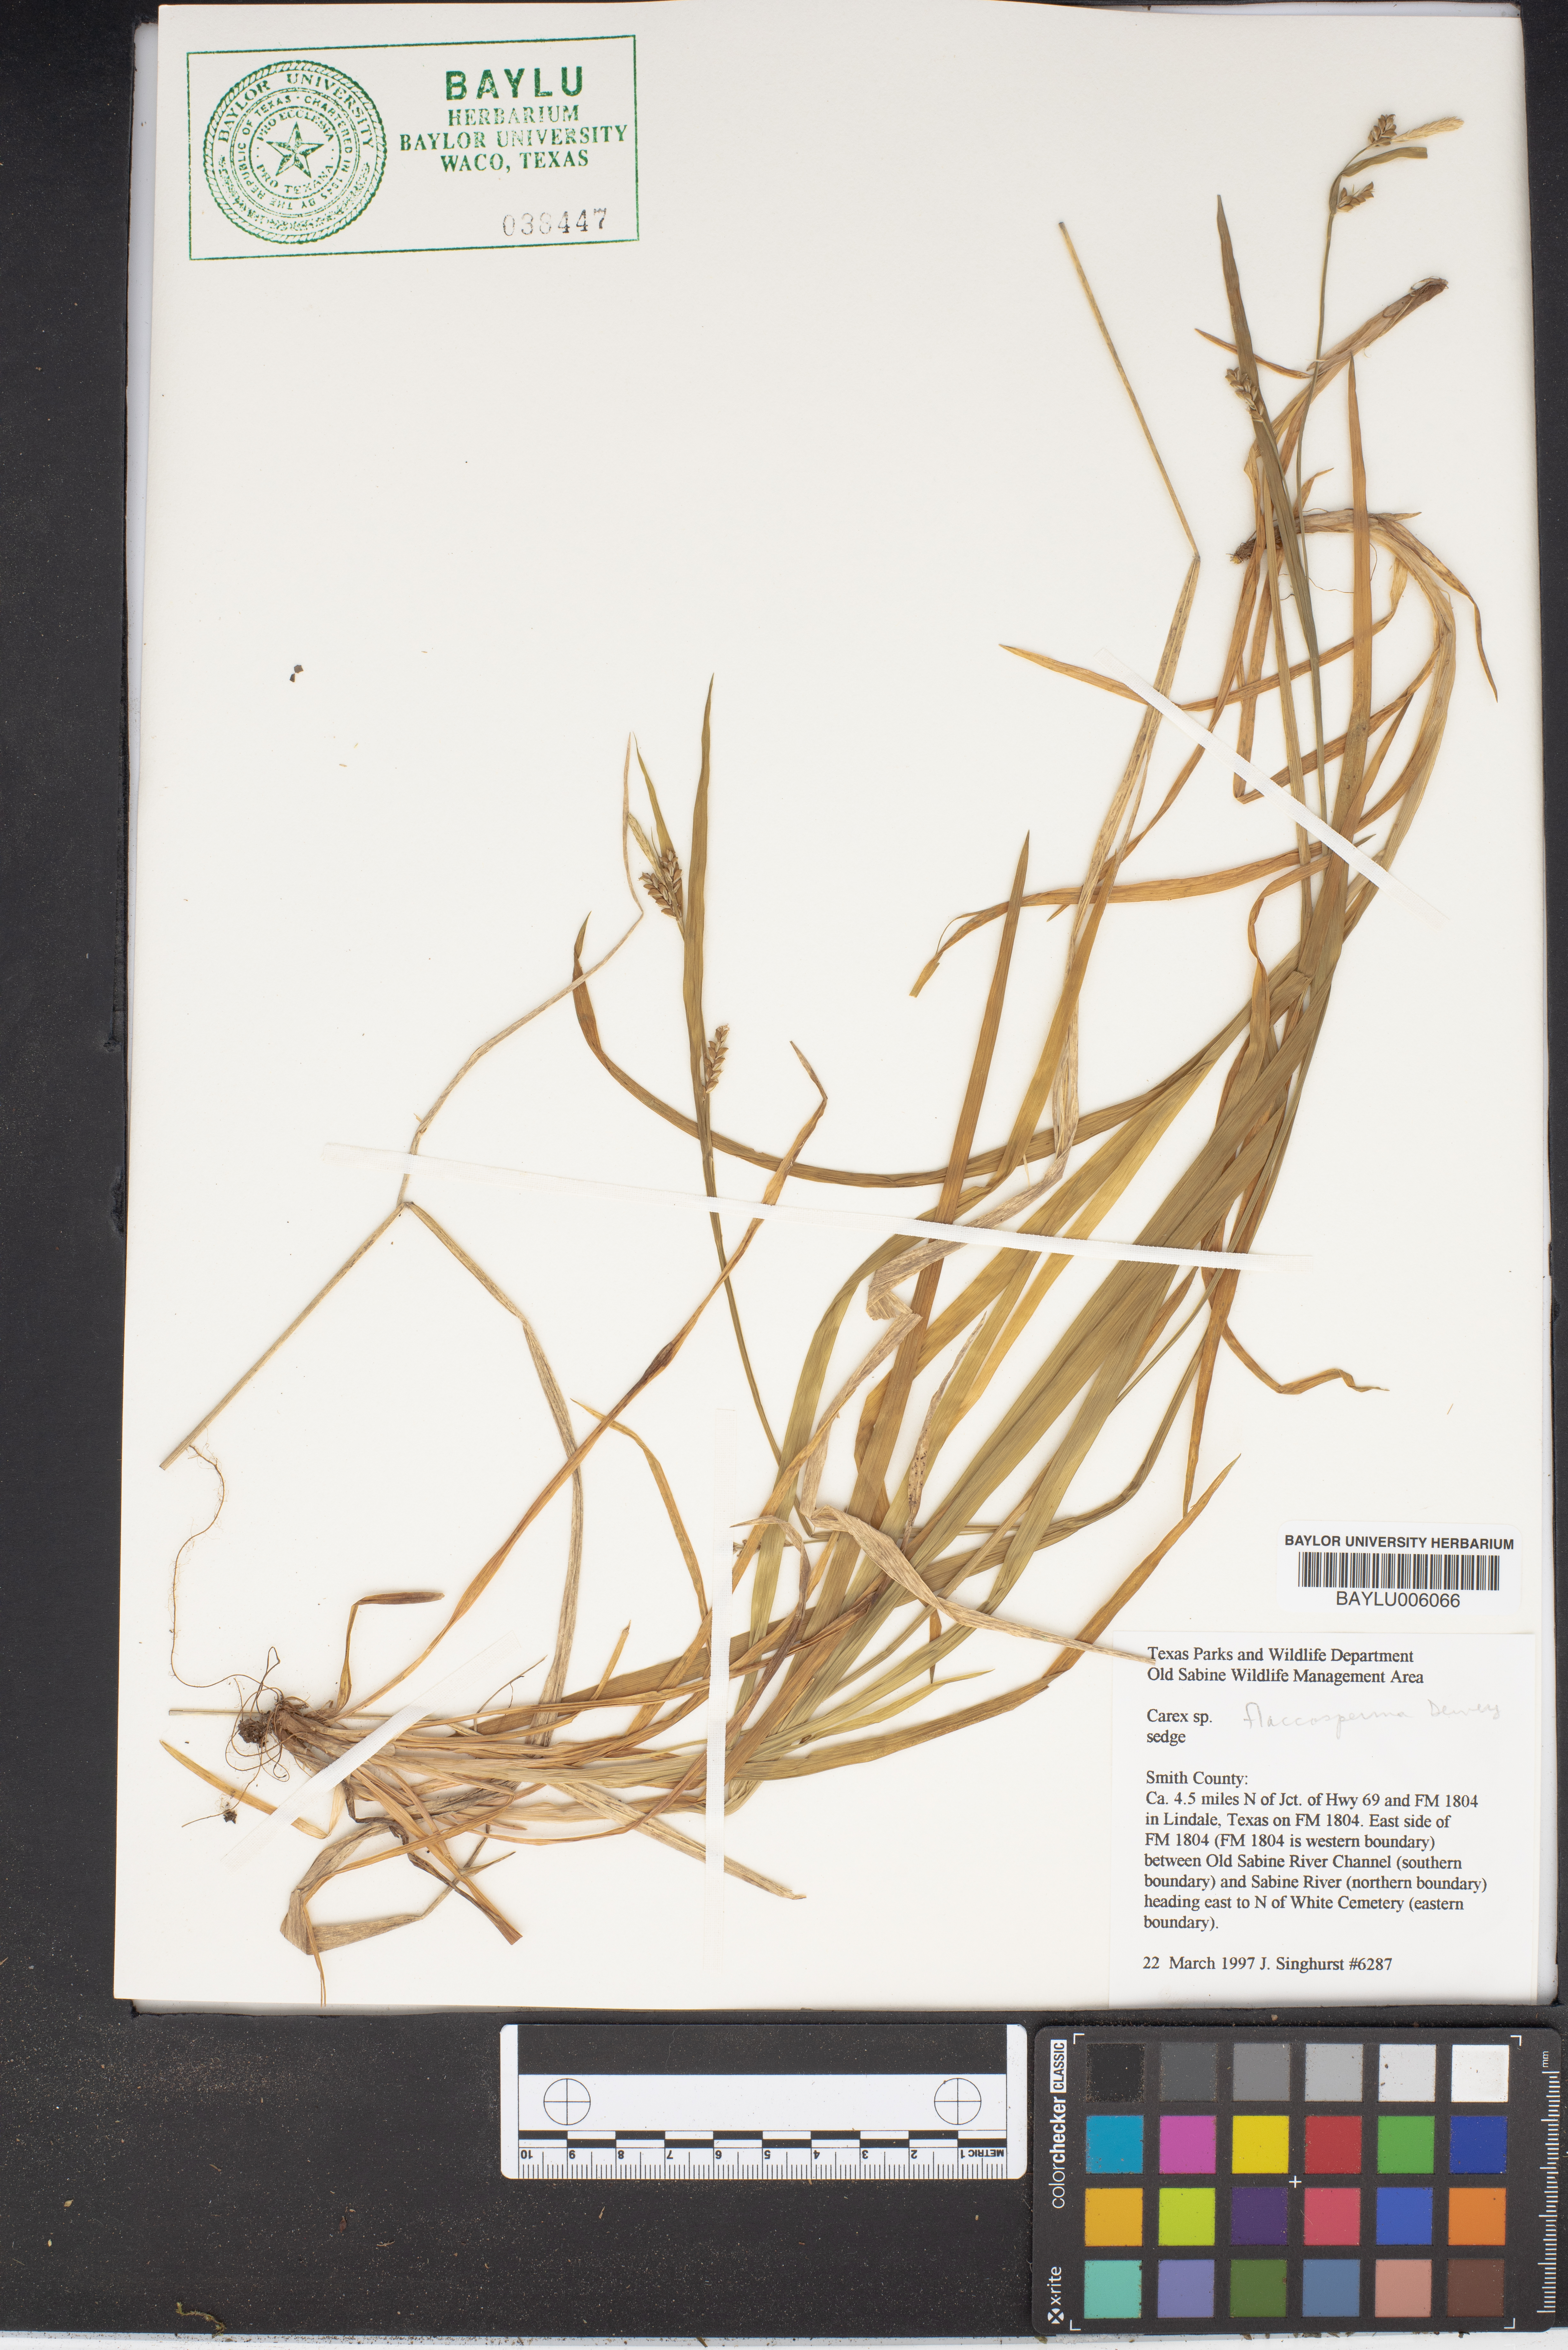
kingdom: Plantae
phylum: Tracheophyta
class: Liliopsida
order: Poales
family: Cyperaceae
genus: Carex
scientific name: Carex flaccosperma
